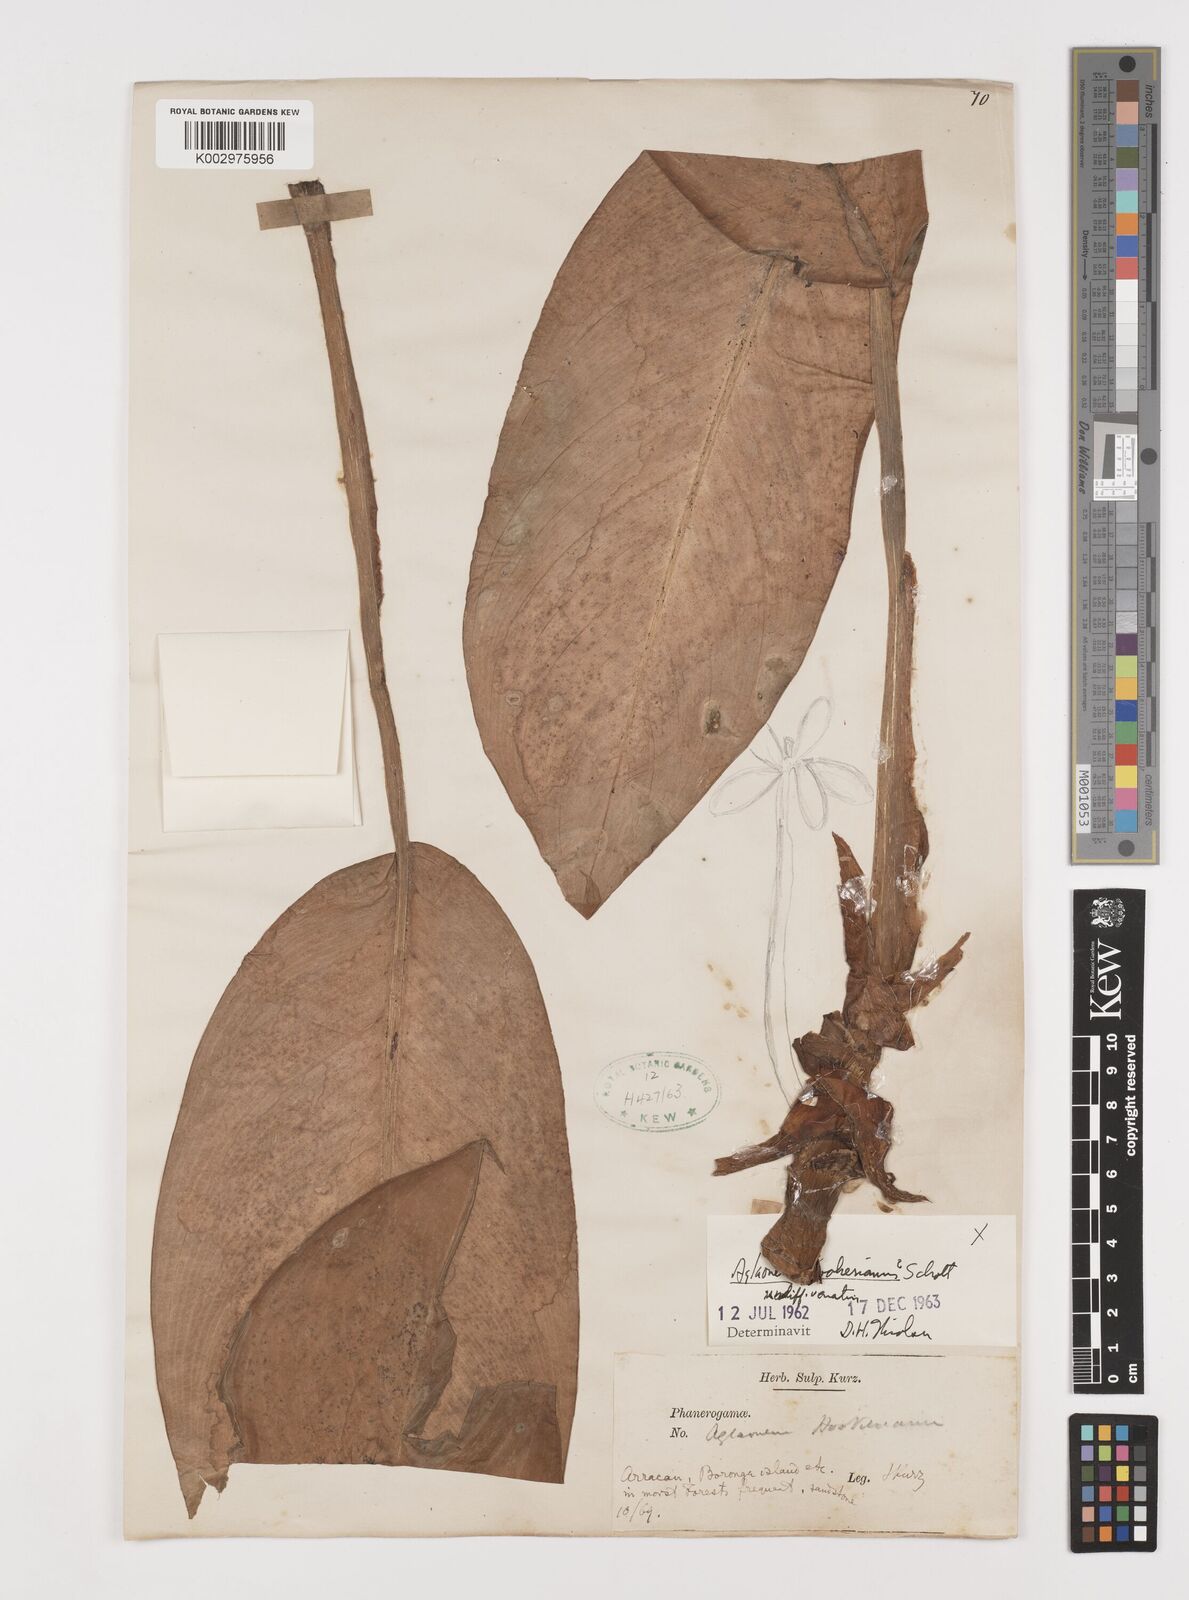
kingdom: Plantae
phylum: Tracheophyta
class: Liliopsida
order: Alismatales
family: Araceae
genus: Aglaonema
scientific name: Aglaonema hookerianum
